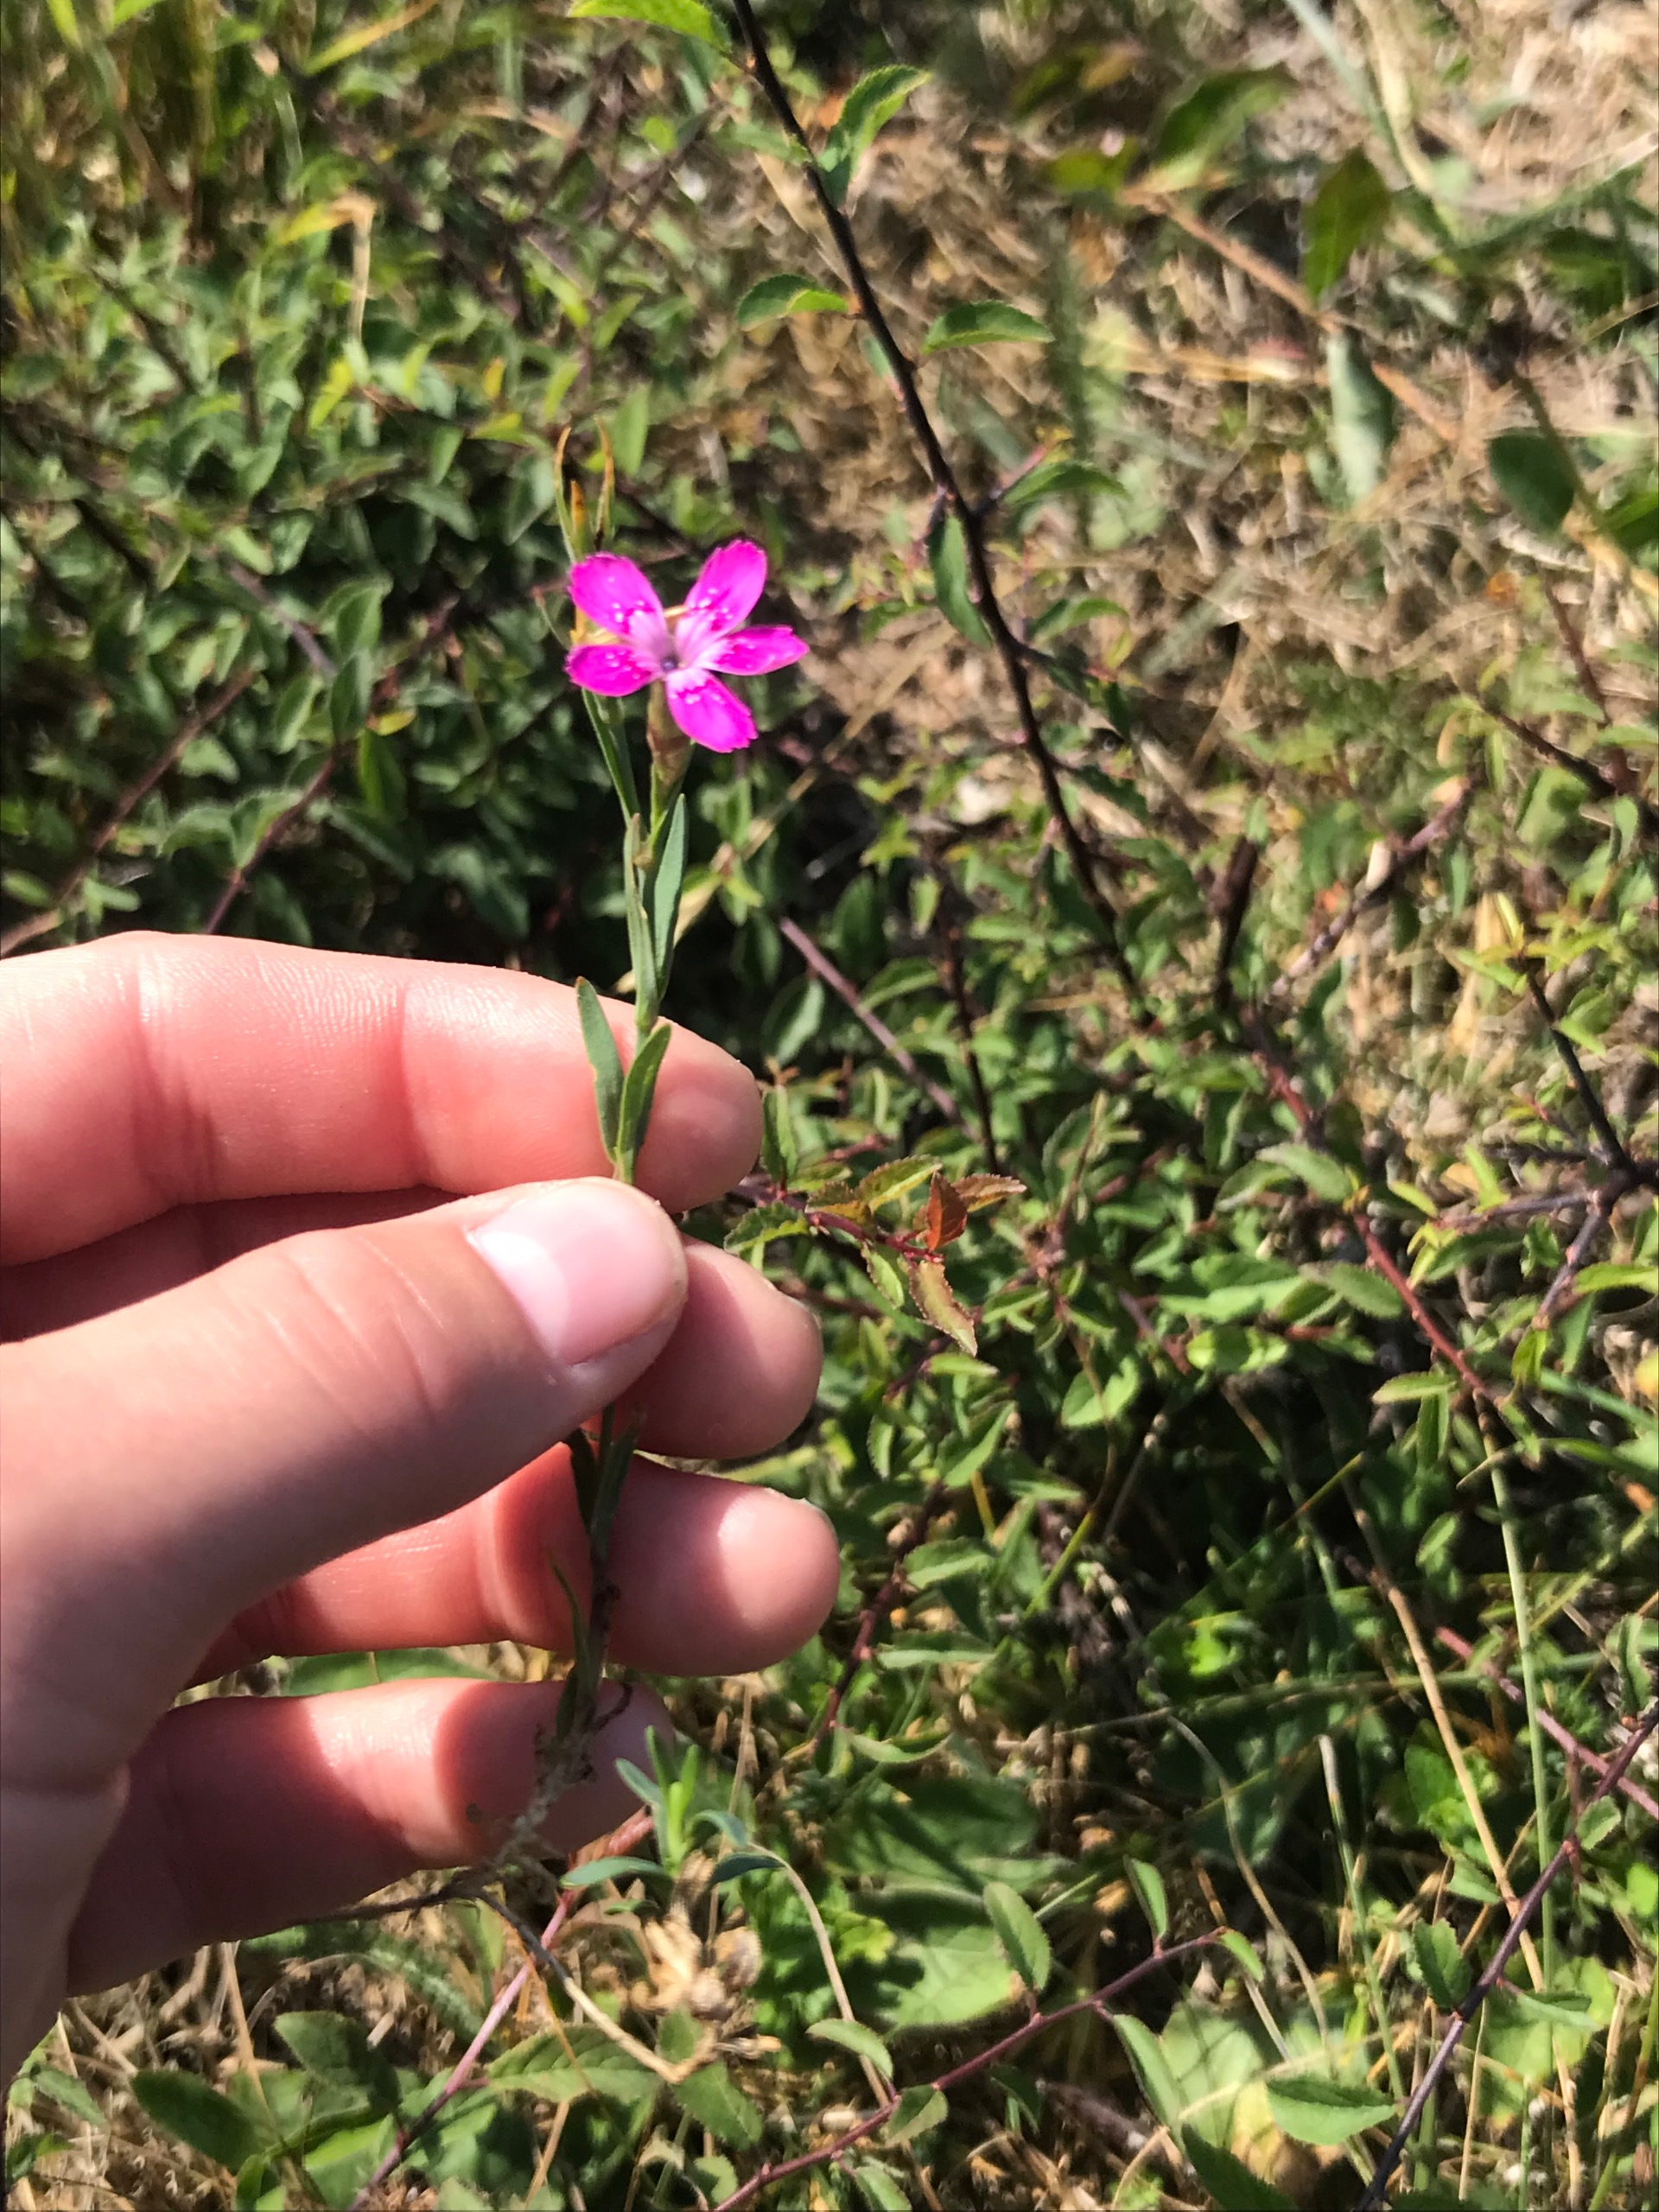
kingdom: Plantae
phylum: Tracheophyta
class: Magnoliopsida
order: Caryophyllales
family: Caryophyllaceae
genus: Dianthus
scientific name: Dianthus deltoides
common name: Bakke-nellike
